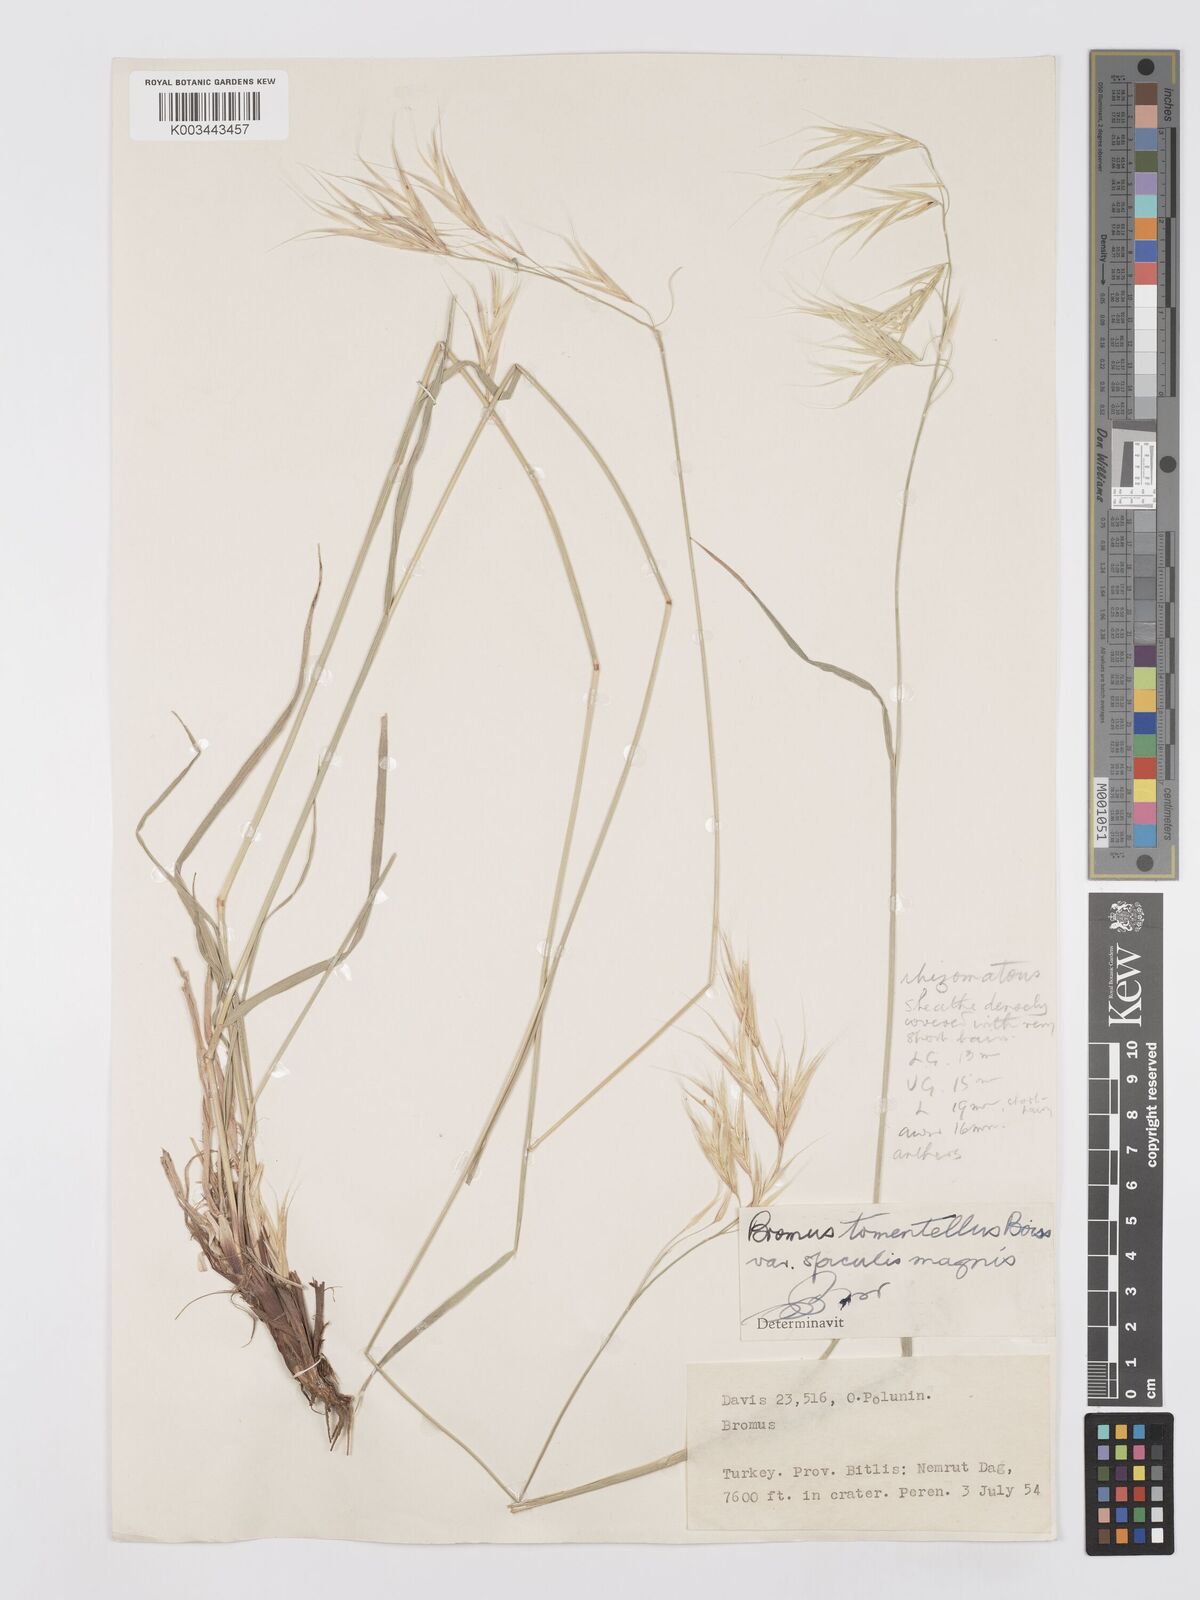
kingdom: Plantae
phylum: Tracheophyta
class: Liliopsida
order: Poales
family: Poaceae
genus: Bromus
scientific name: Bromus tomentellus
